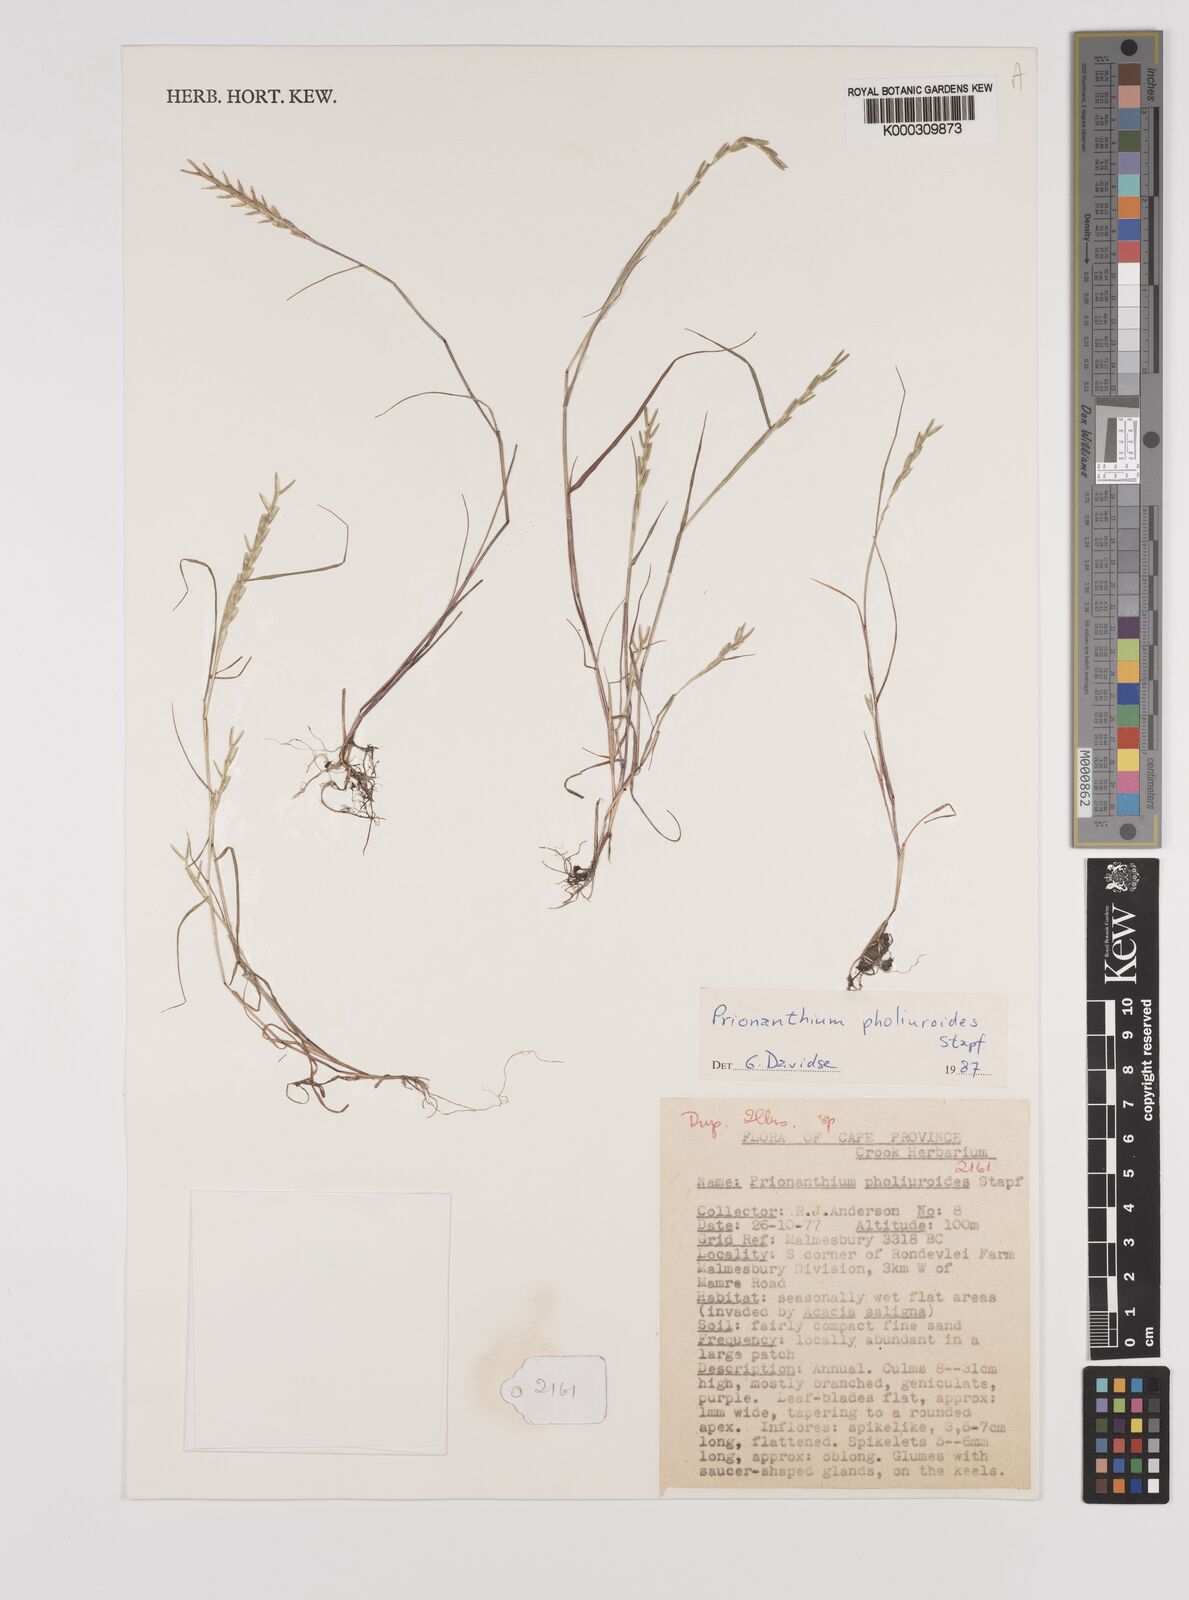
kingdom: Plantae
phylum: Tracheophyta
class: Liliopsida
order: Poales
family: Poaceae
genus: Pentameris
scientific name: Pentameris pholiuroides
